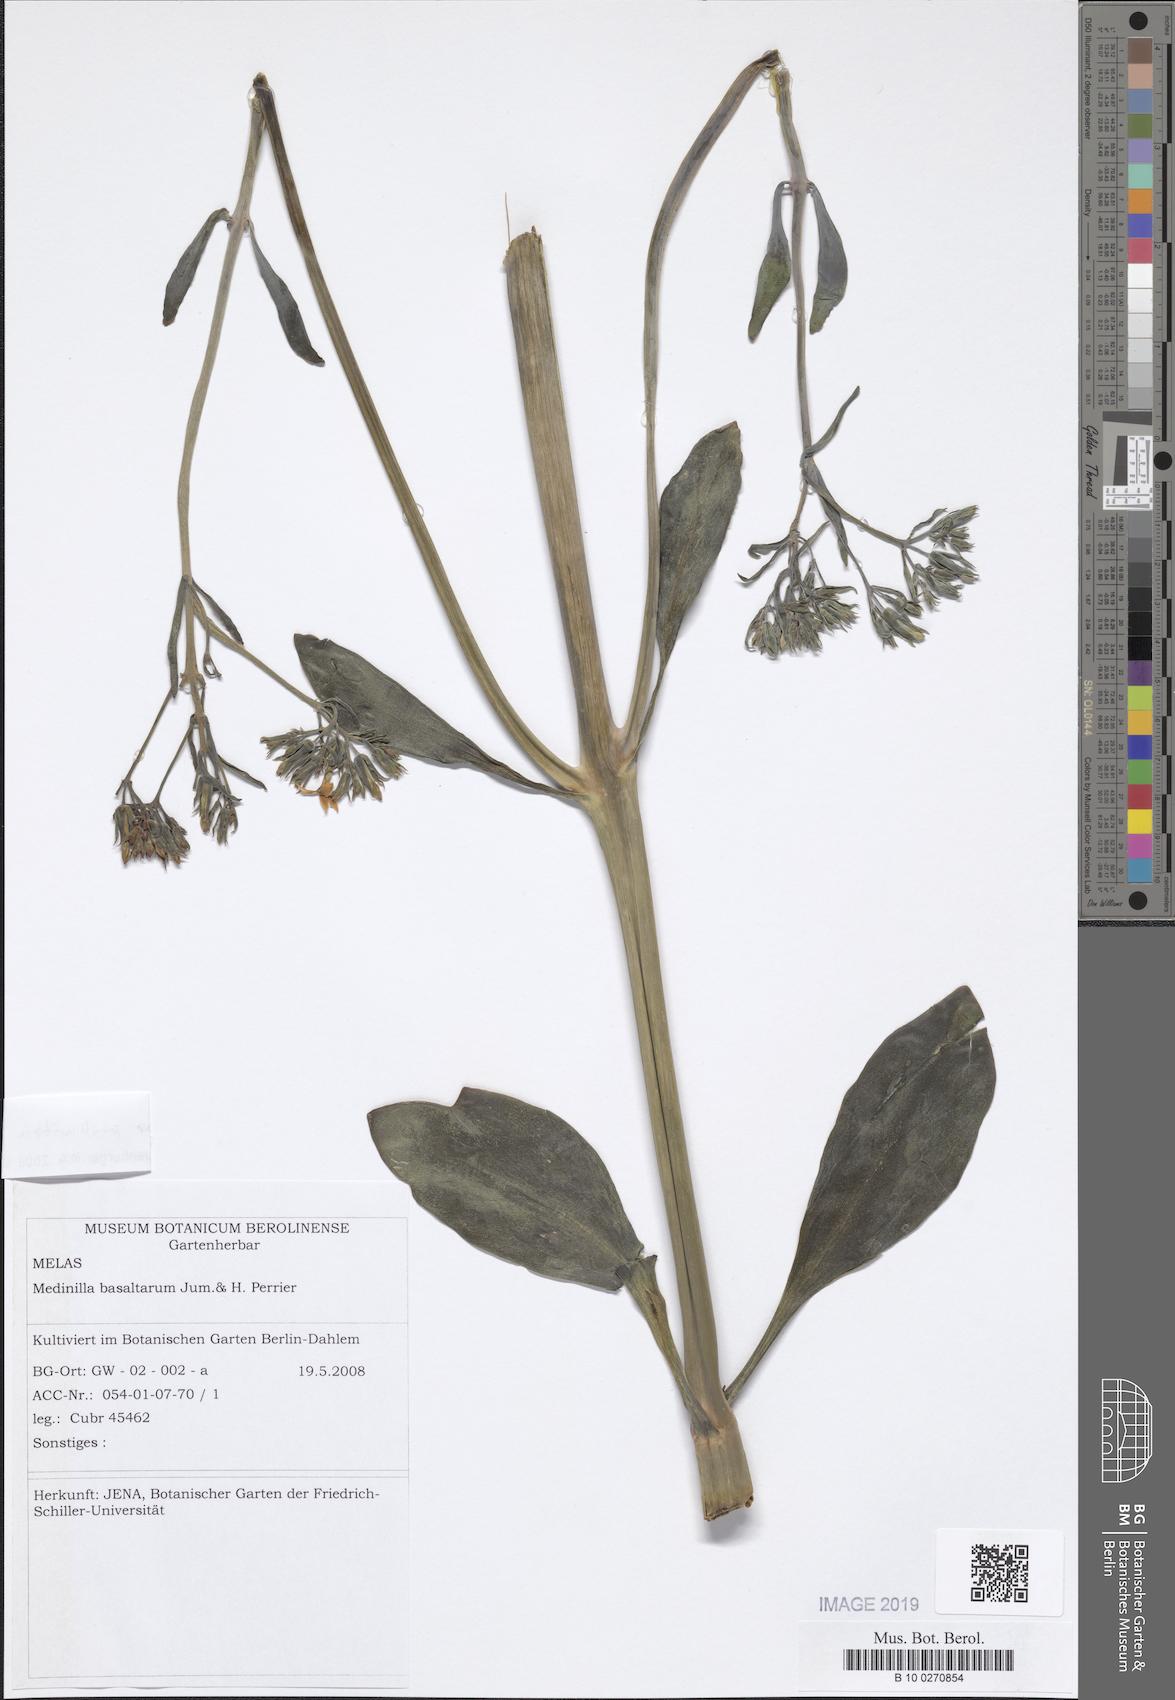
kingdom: Plantae
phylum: Tracheophyta
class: Magnoliopsida
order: Saxifragales
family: Crassulaceae
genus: Kalanchoe
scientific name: Kalanchoe prittwitzii
